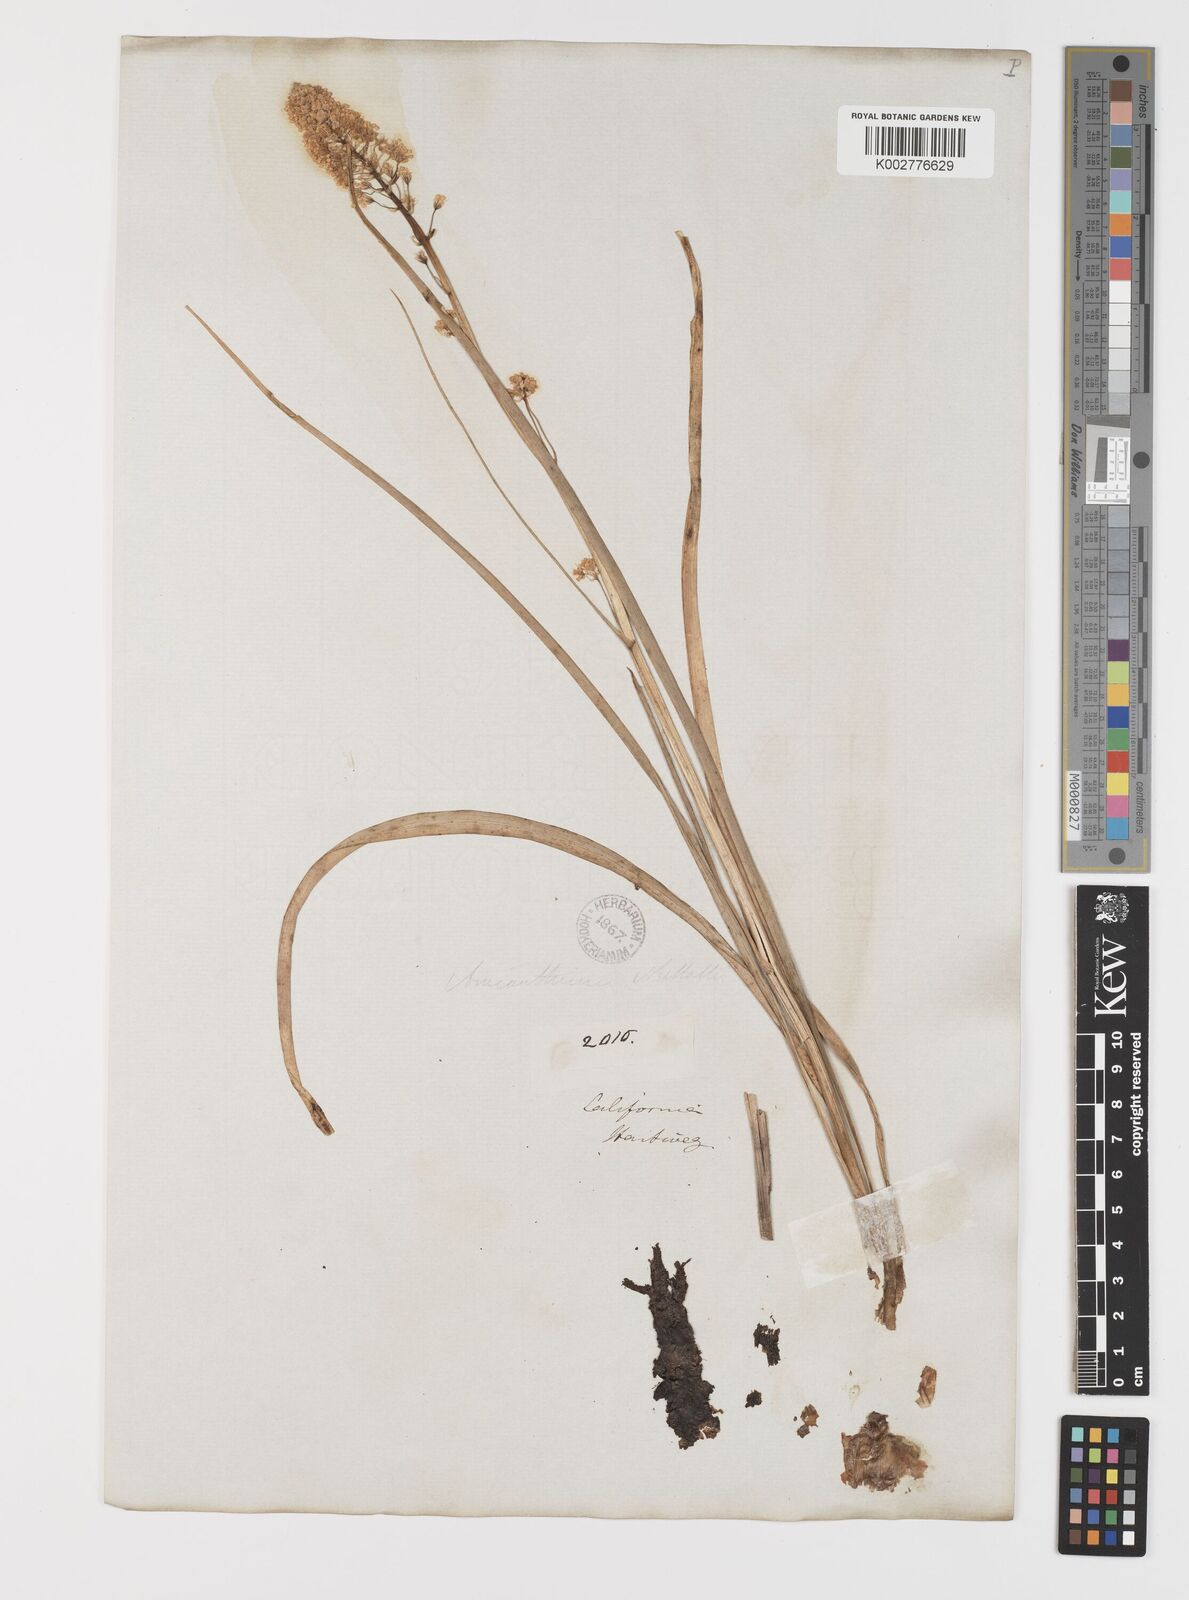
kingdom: Plantae
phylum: Tracheophyta
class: Liliopsida
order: Liliales
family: Melanthiaceae
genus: Toxicoscordion
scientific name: Toxicoscordion venenosum
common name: Meadow death camas
